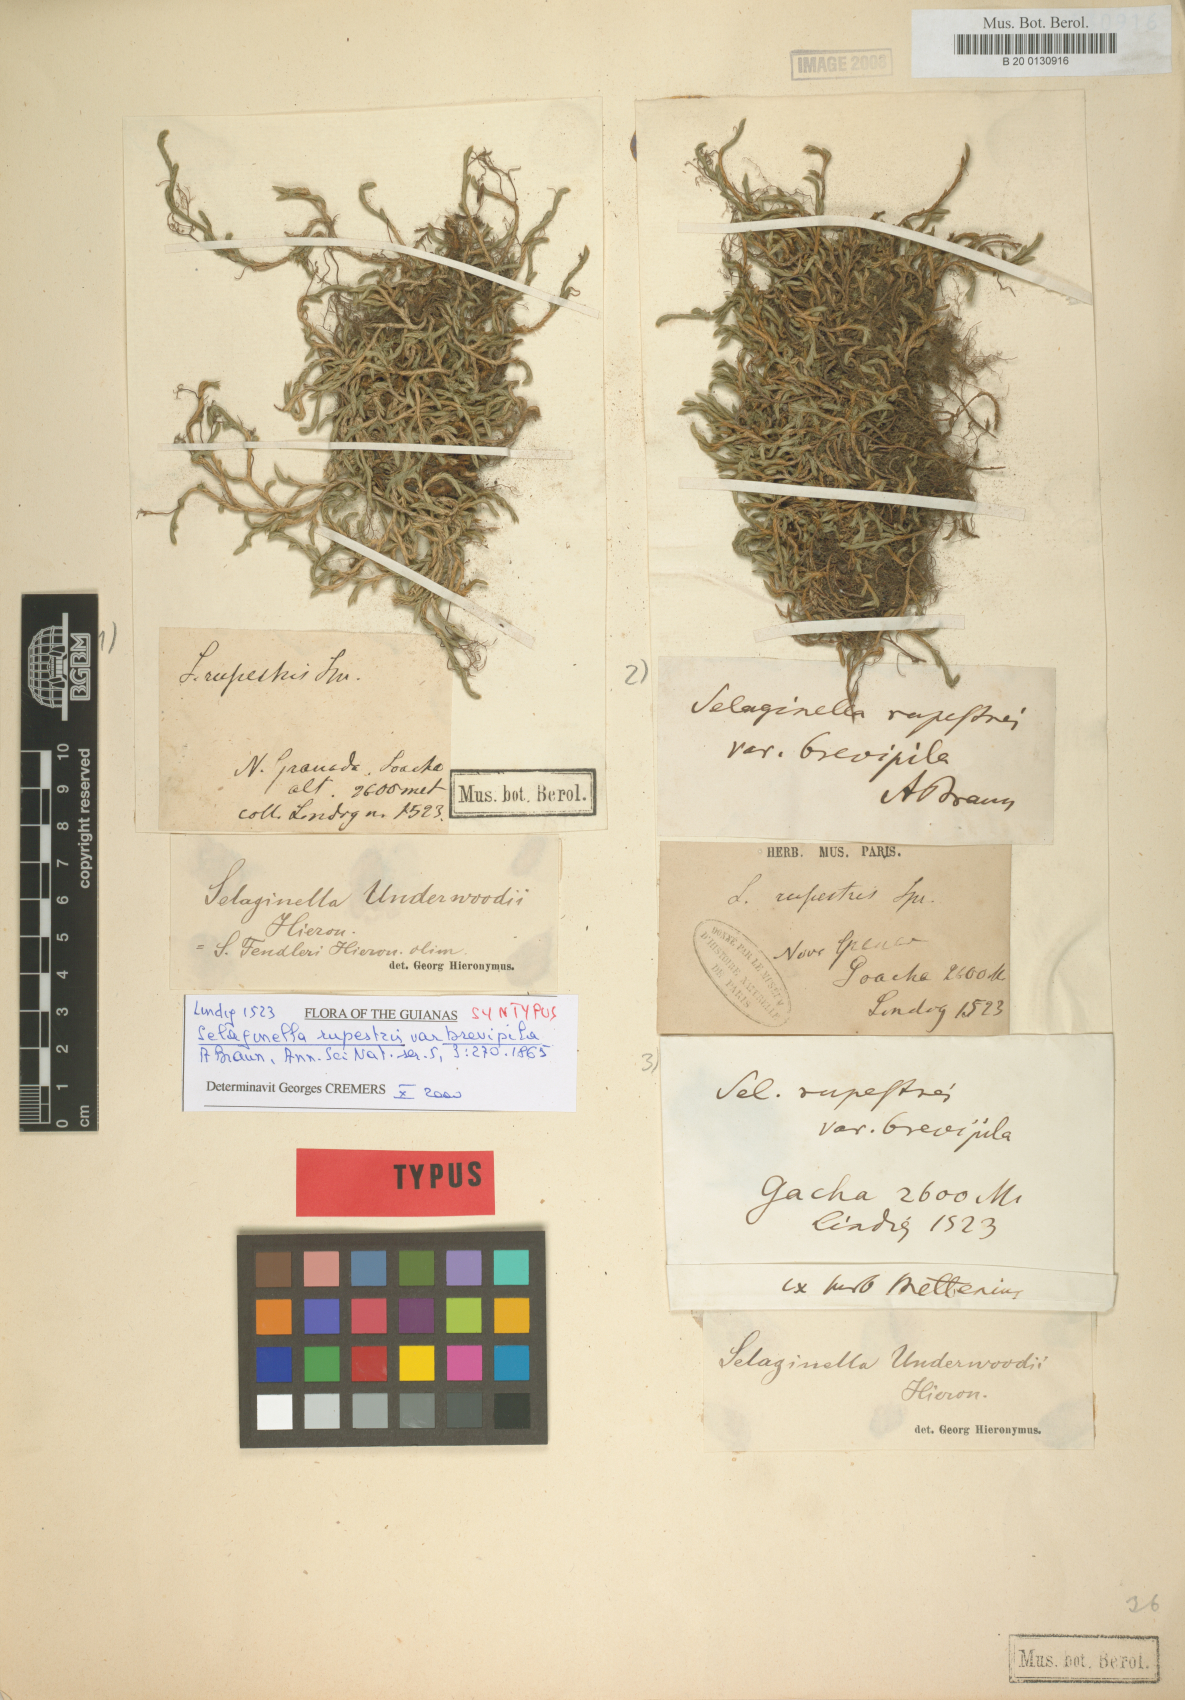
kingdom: Plantae
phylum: Tracheophyta
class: Lycopodiopsida
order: Selaginellales
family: Selaginellaceae
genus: Selaginella
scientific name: Selaginella sartorii
